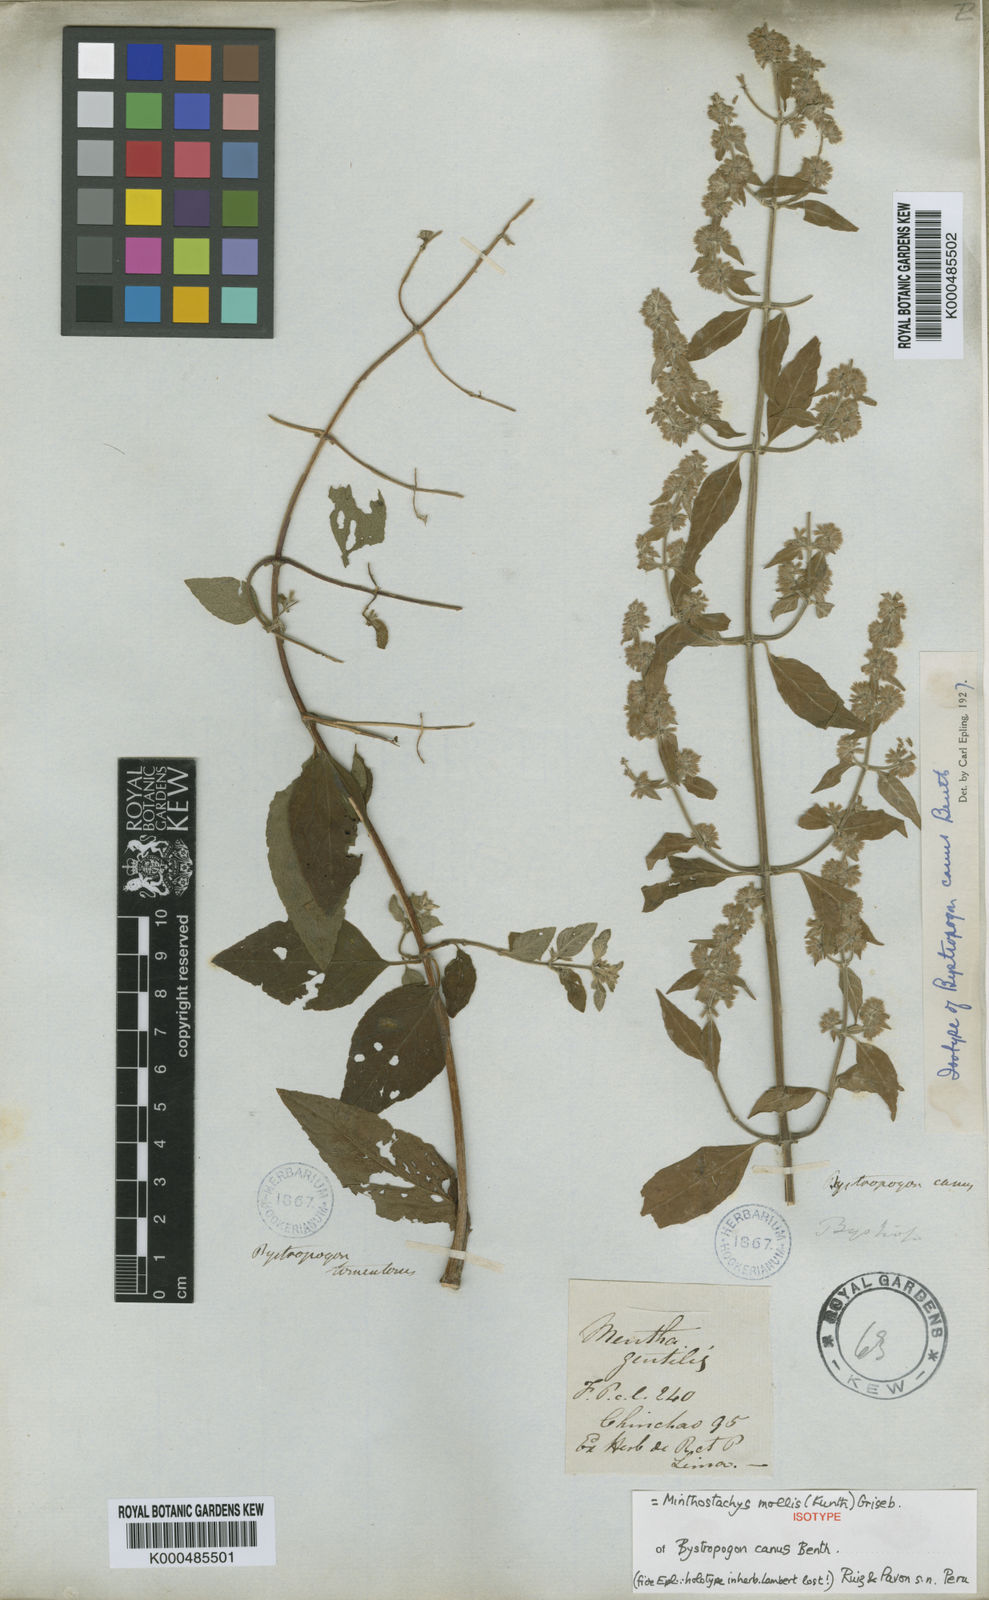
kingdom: Plantae
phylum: Tracheophyta
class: Magnoliopsida
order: Lamiales
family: Lamiaceae
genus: Minthostachys
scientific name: Minthostachys mollis
